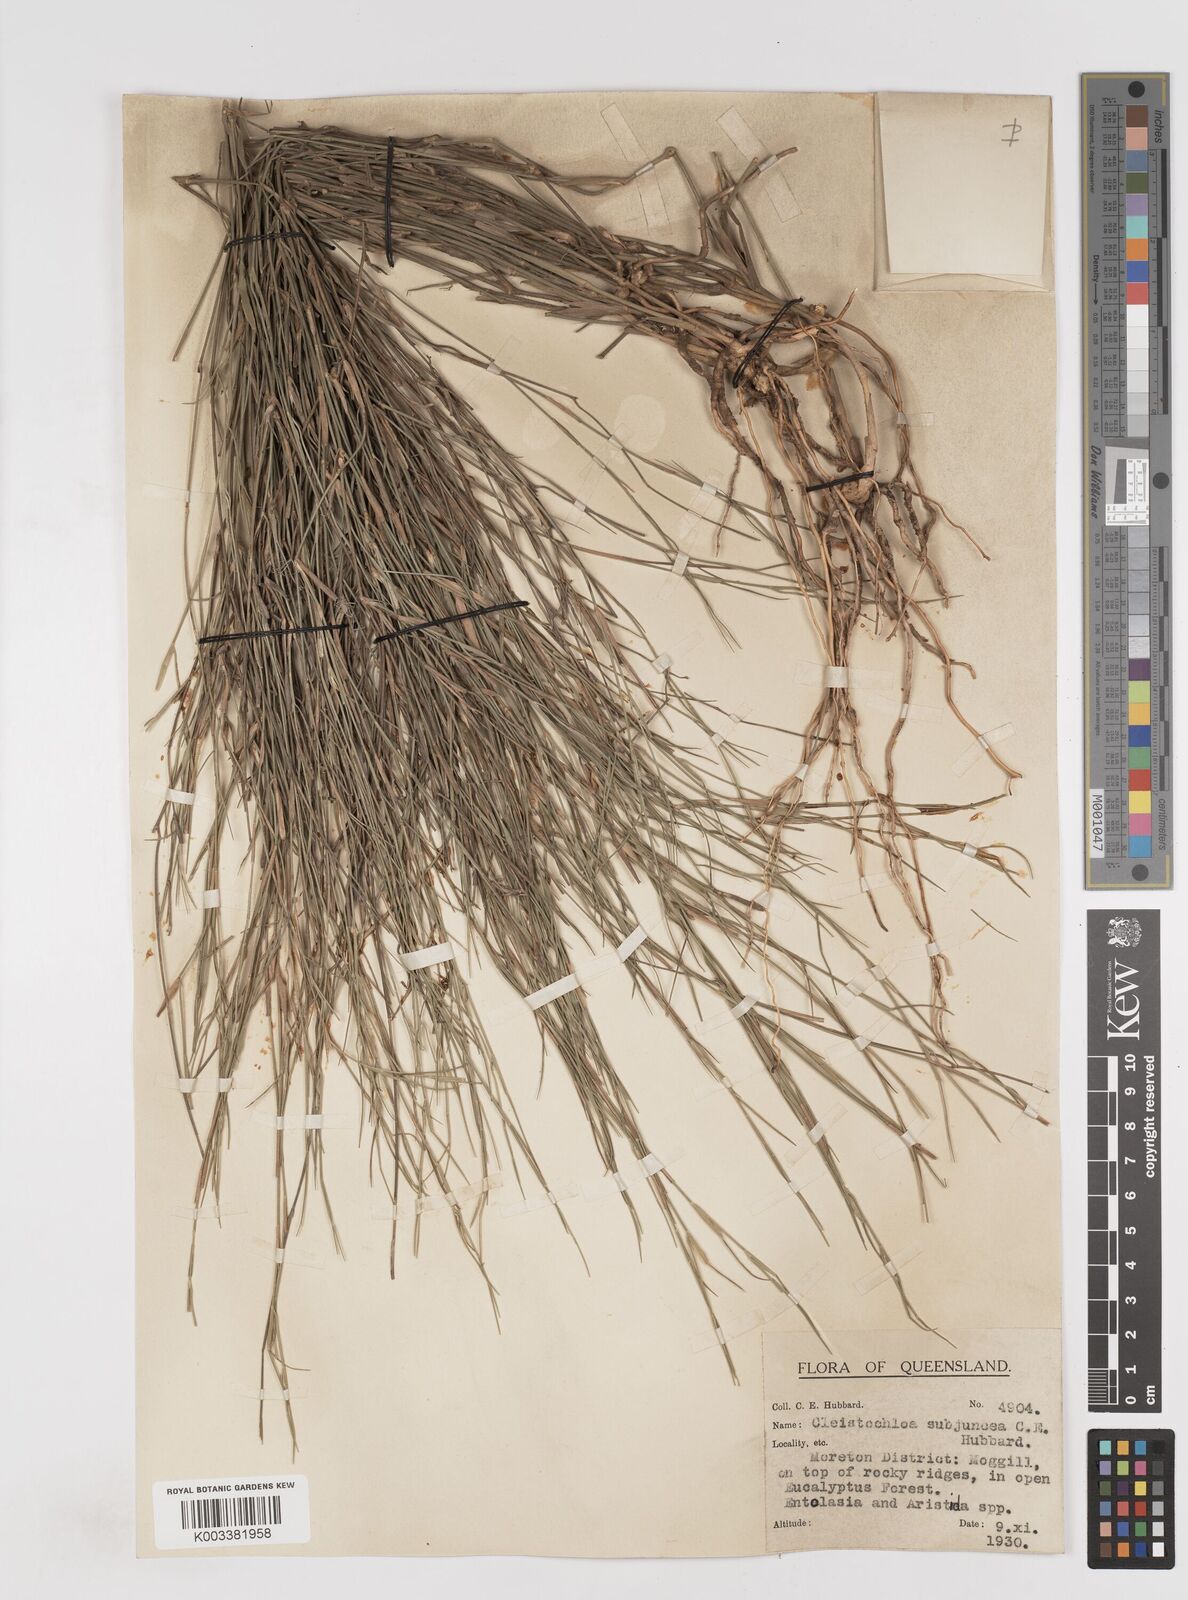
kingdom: Plantae
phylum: Tracheophyta
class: Liliopsida
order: Poales
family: Poaceae
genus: Cleistochloa
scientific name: Cleistochloa subjuncea
